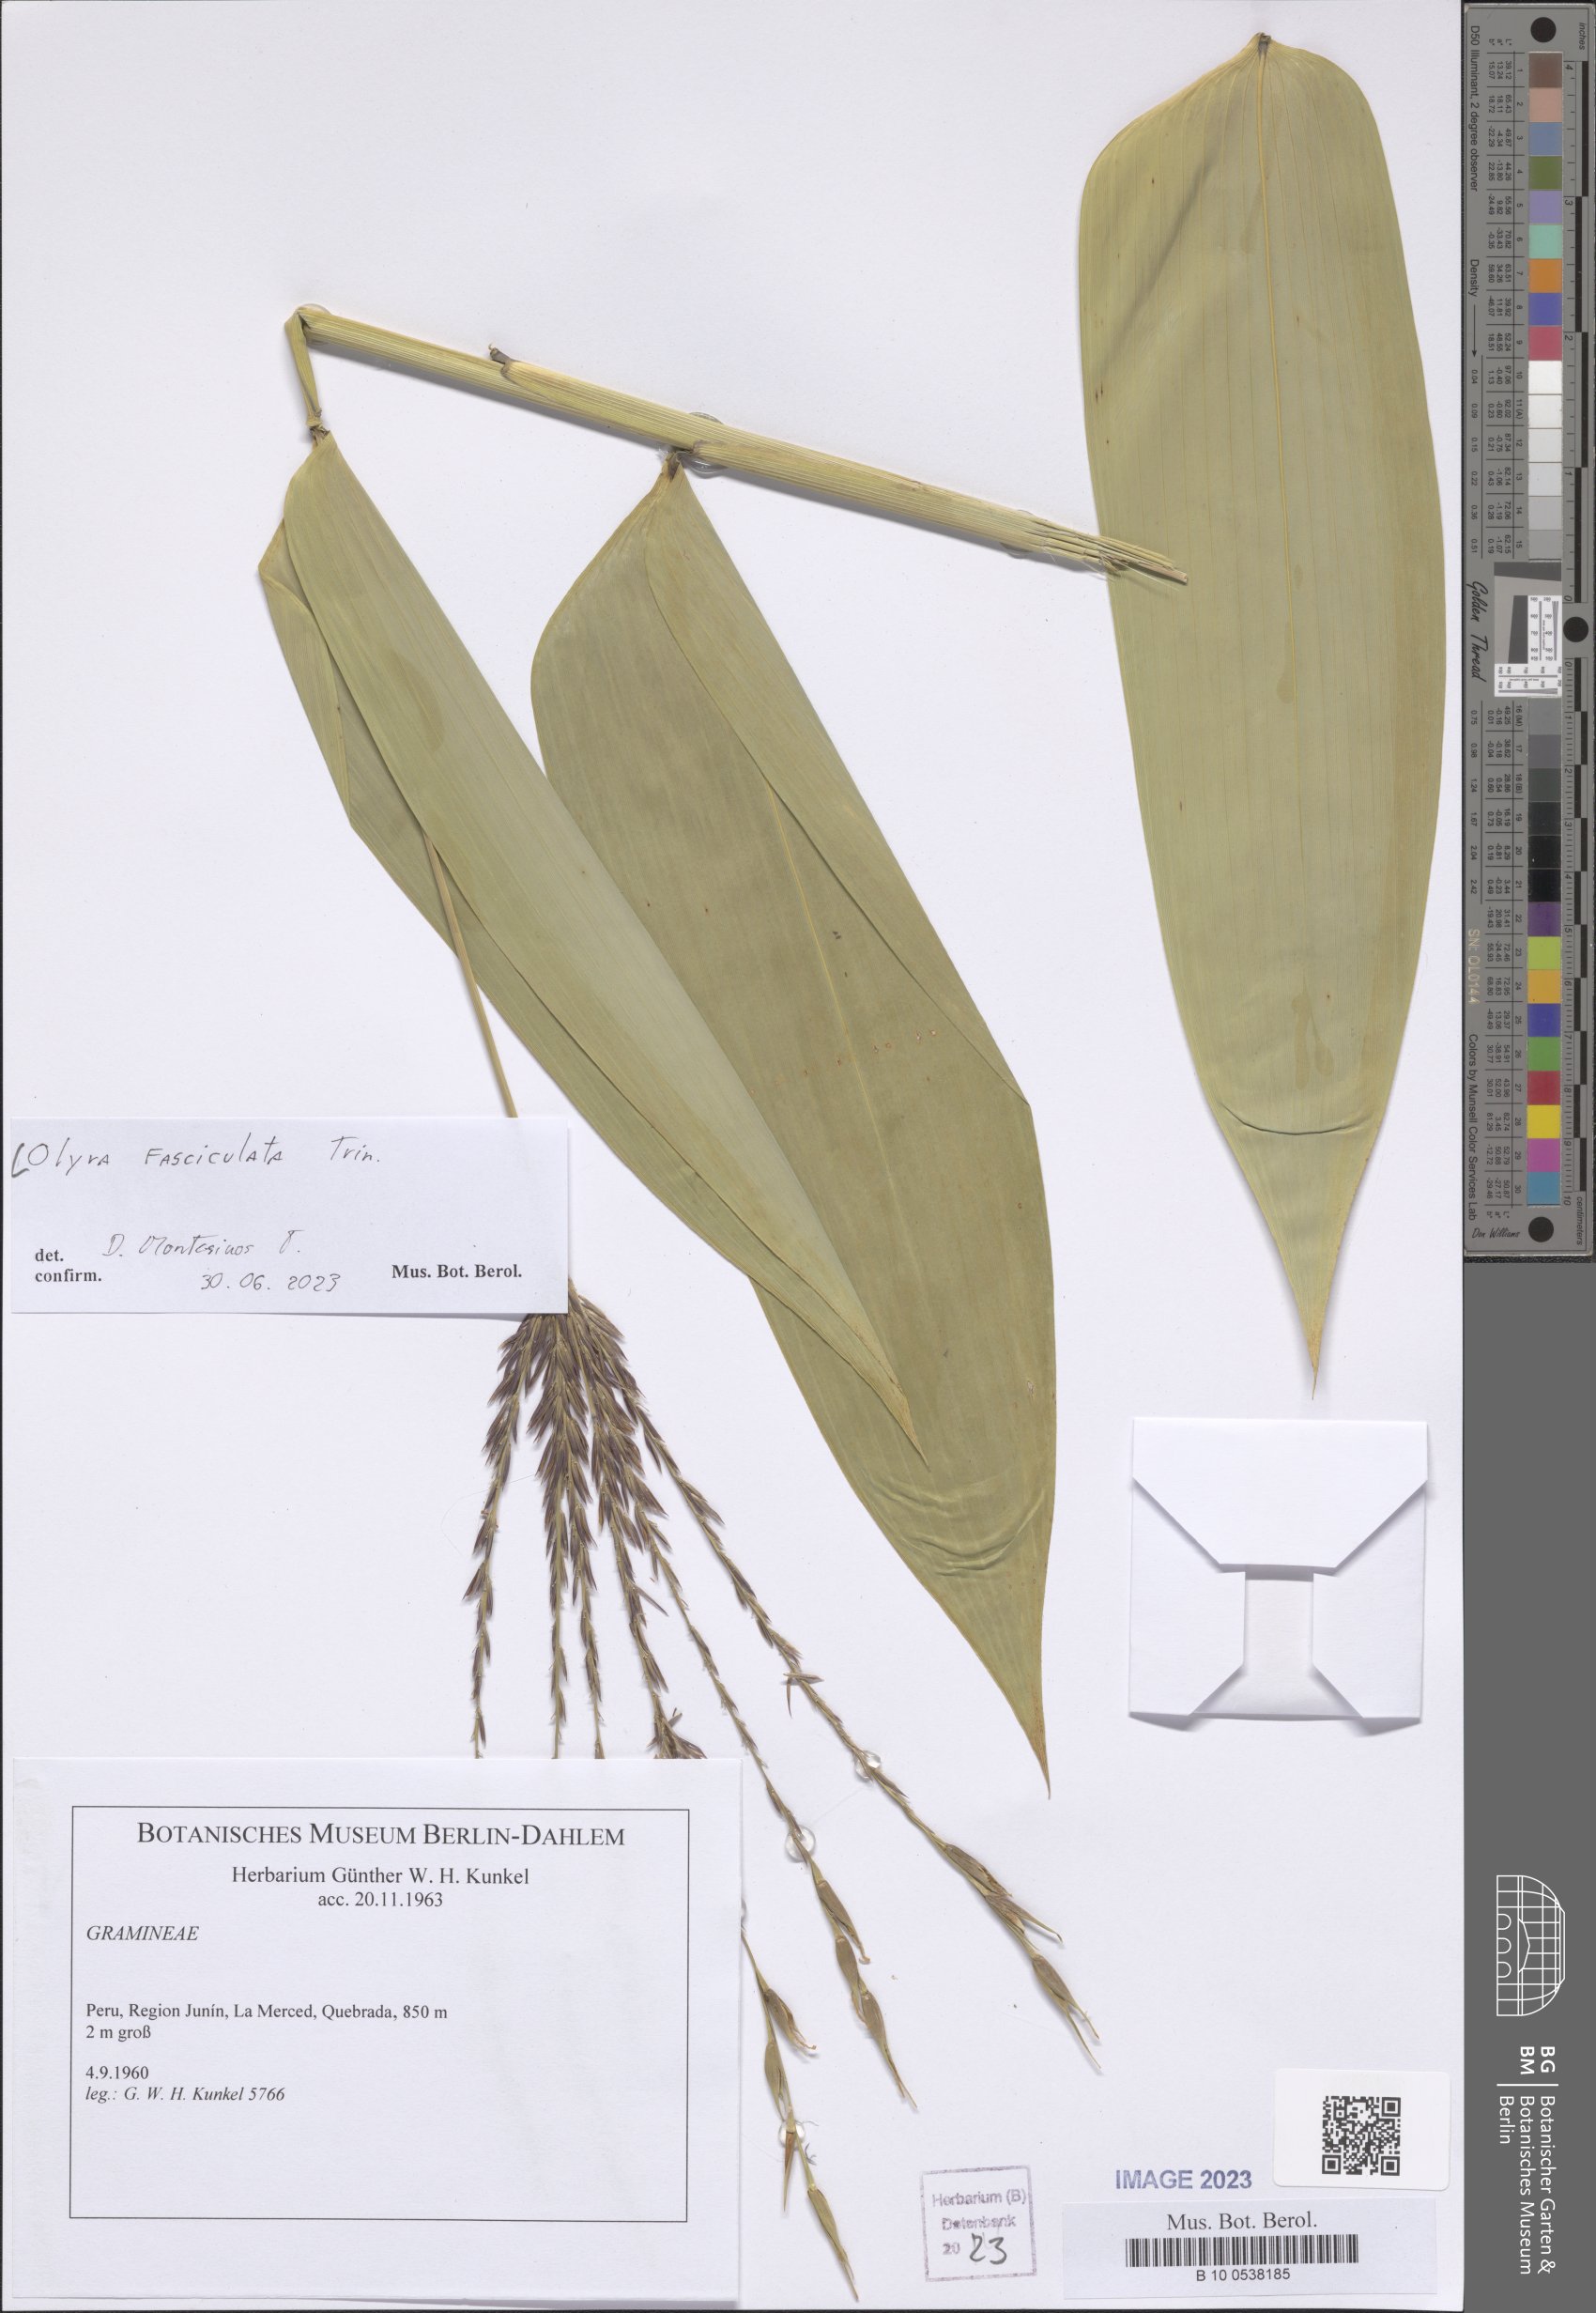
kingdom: Plantae
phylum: Tracheophyta
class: Liliopsida
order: Poales
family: Poaceae
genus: Olyra
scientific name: Olyra fasciculata
